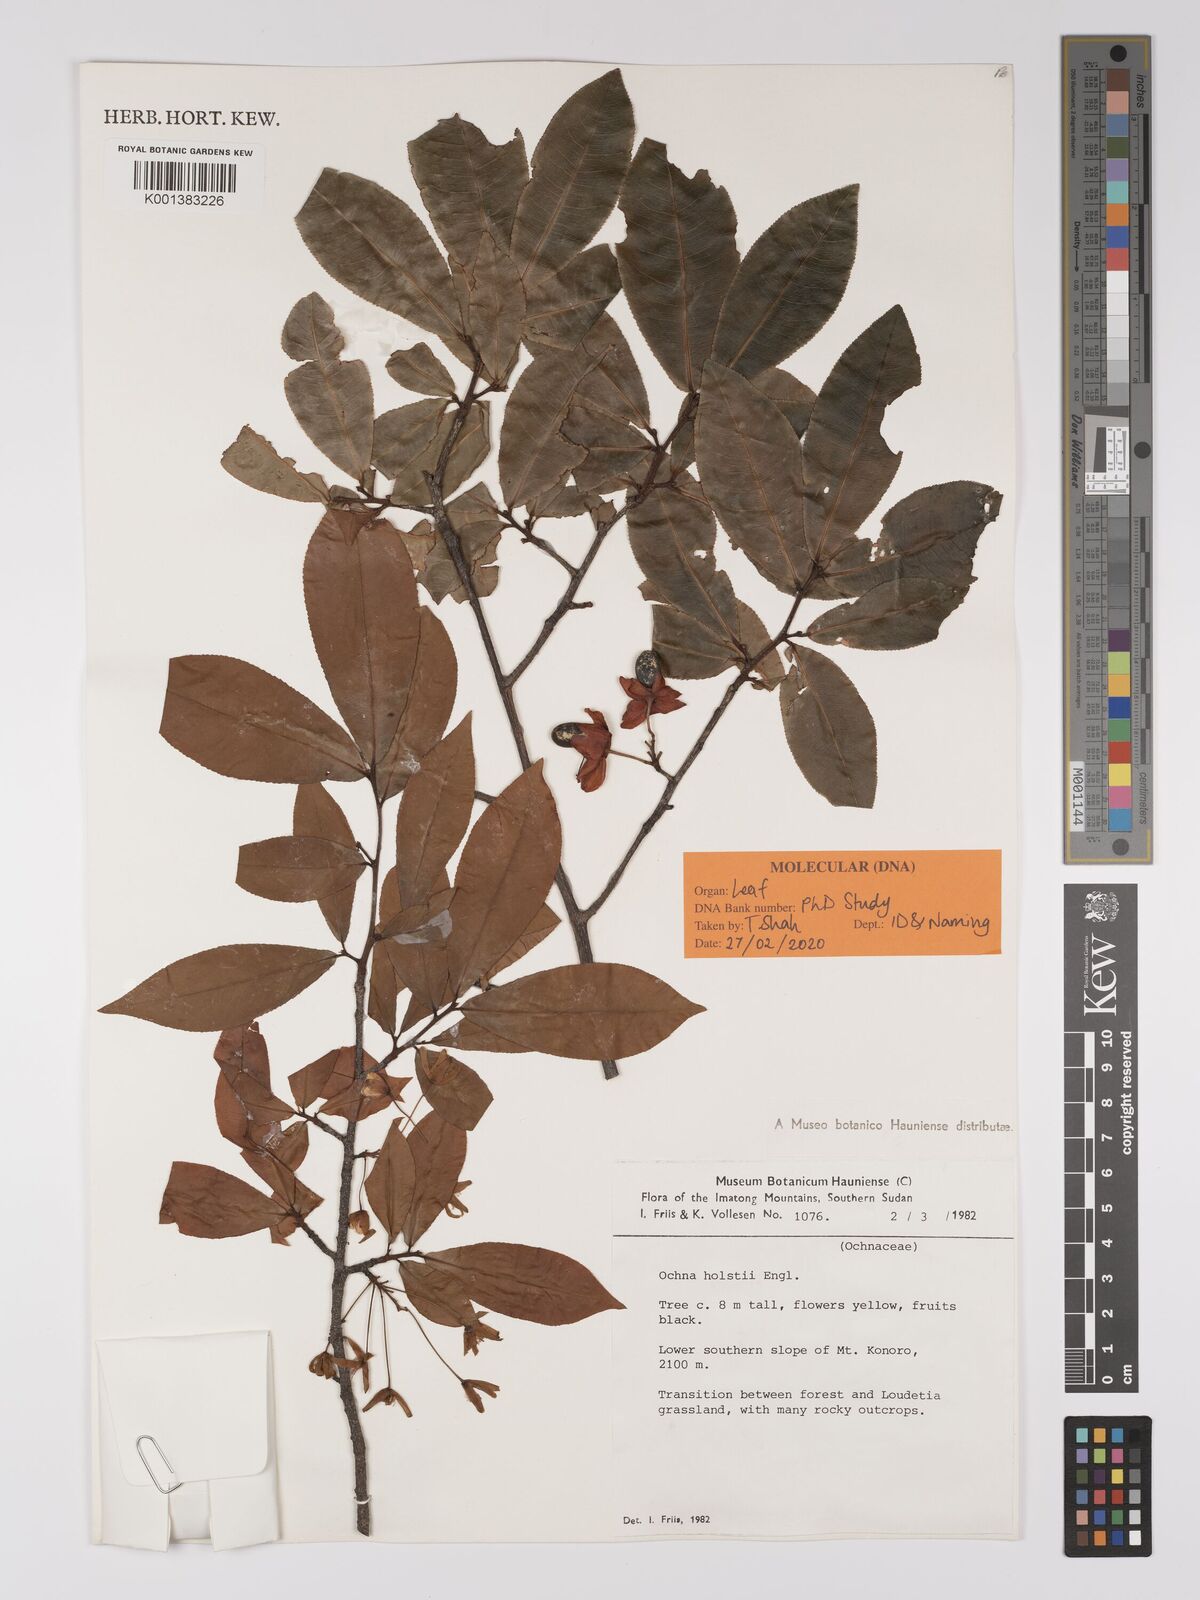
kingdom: Plantae
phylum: Tracheophyta
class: Magnoliopsida
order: Malpighiales
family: Ochnaceae
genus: Ochna
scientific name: Ochna holstii
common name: Red ironwood
